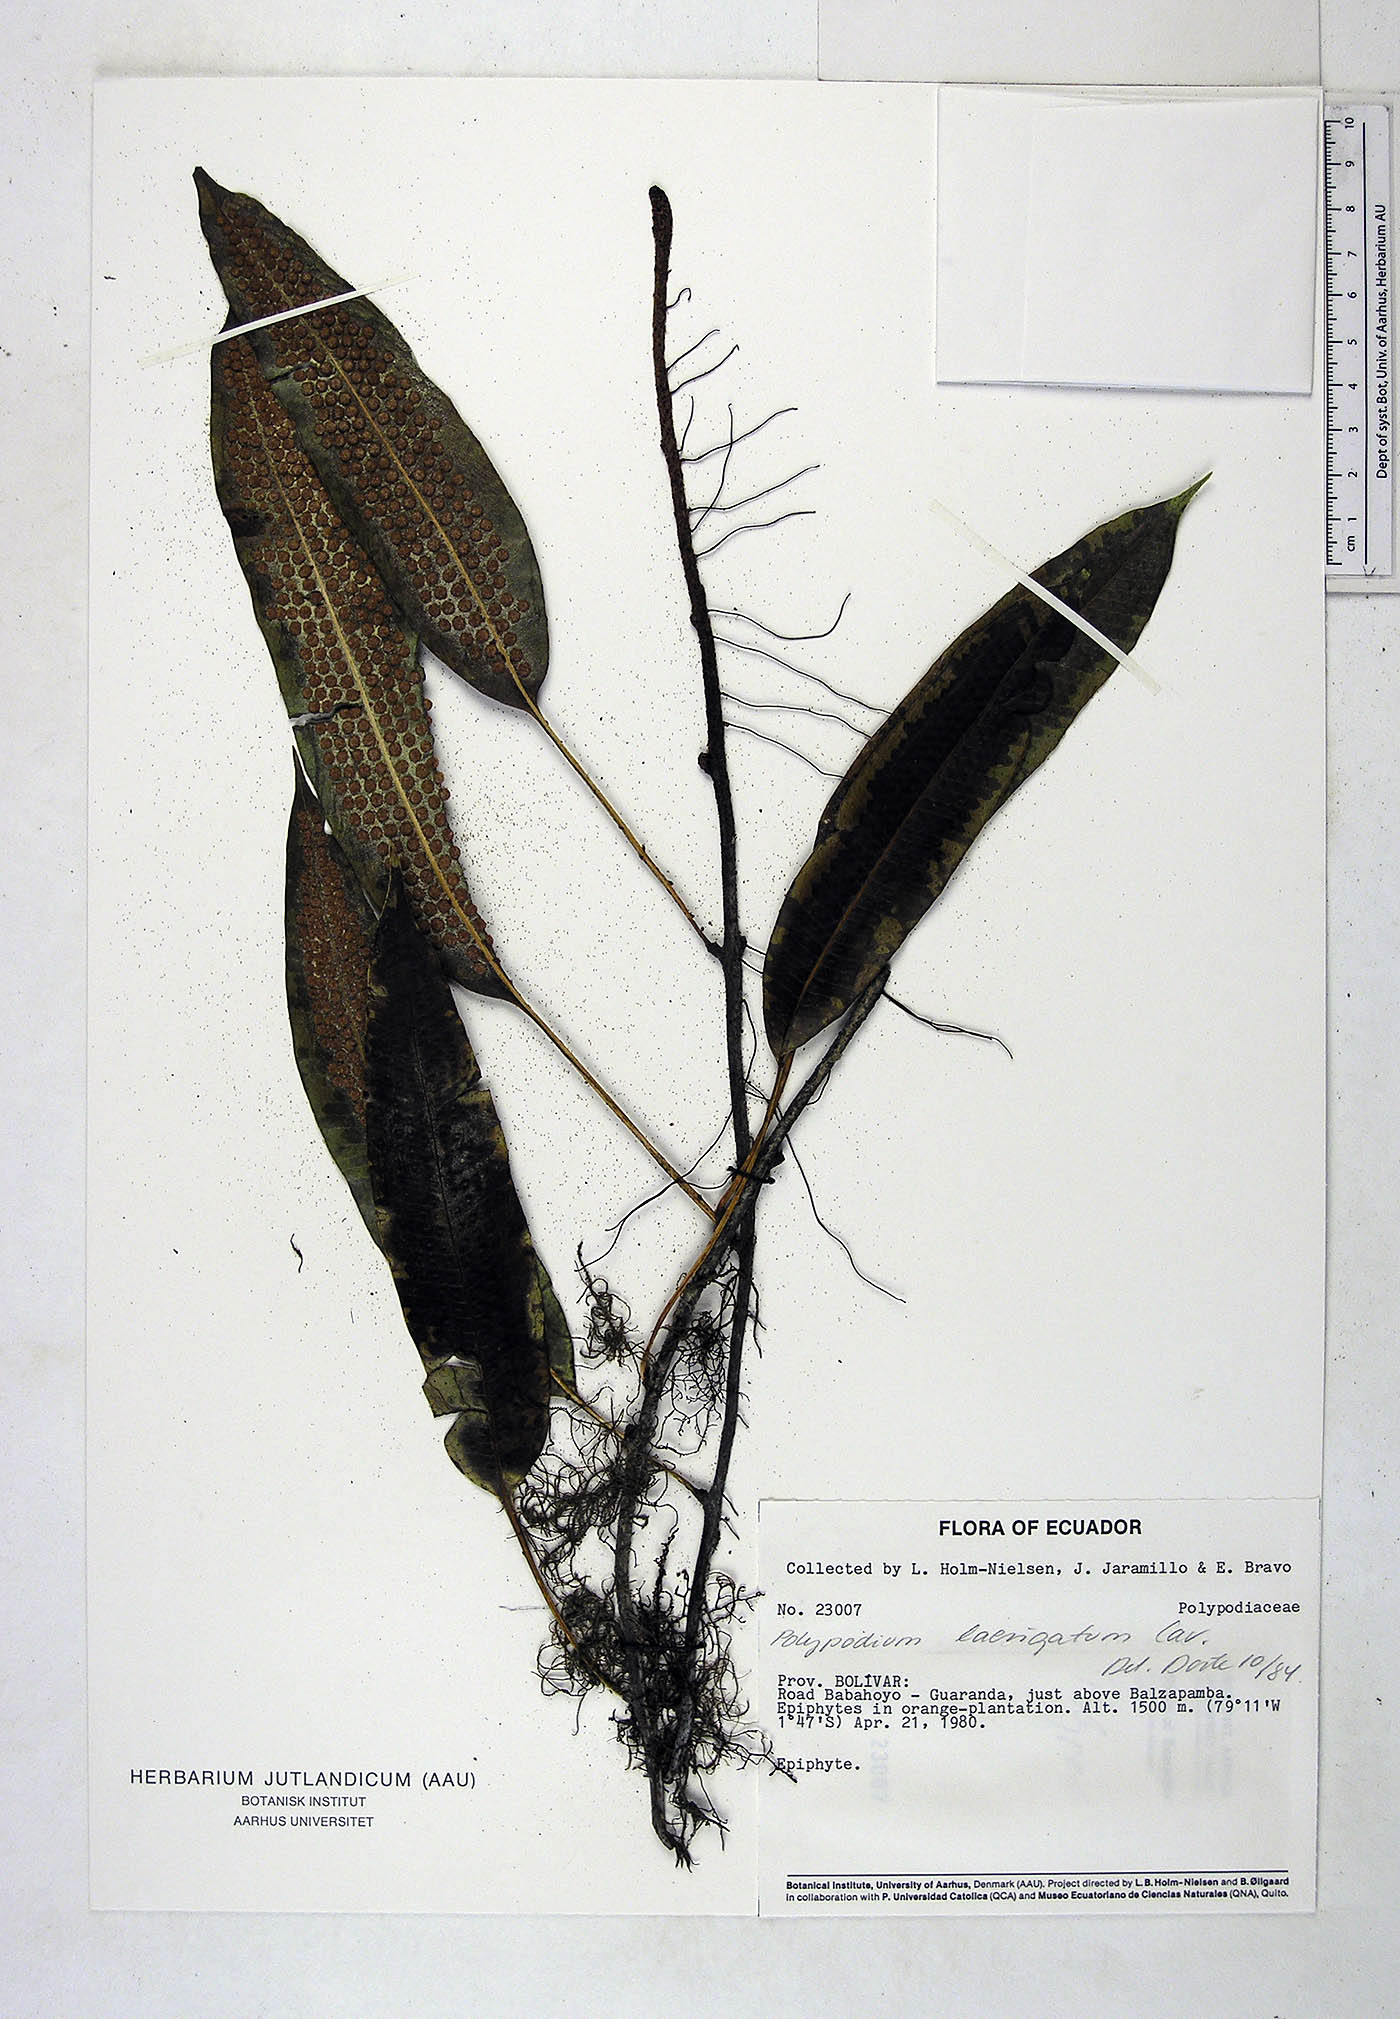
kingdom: Plantae
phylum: Tracheophyta
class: Polypodiopsida
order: Polypodiales
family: Polypodiaceae
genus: Serpocaulon
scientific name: Serpocaulon laevigatum
